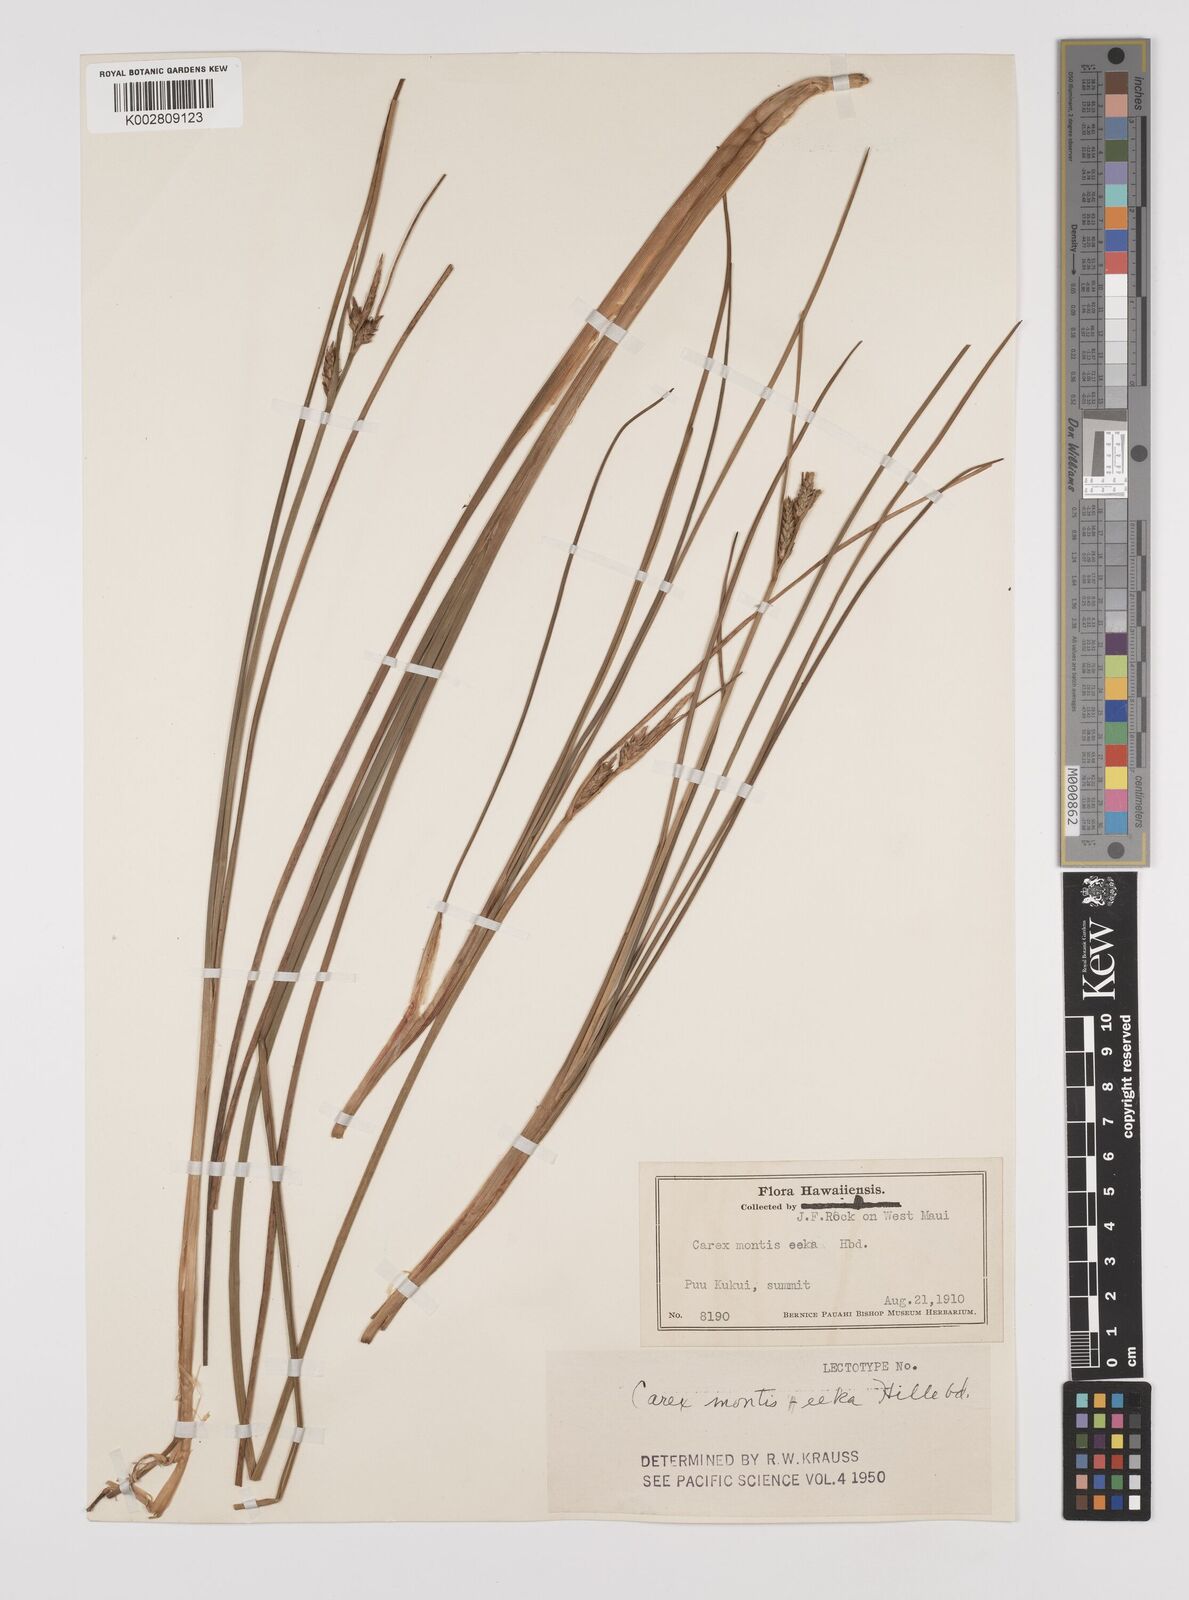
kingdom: Plantae
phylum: Tracheophyta
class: Liliopsida
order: Poales
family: Cyperaceae
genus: Carex
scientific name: Carex montis-eeka
